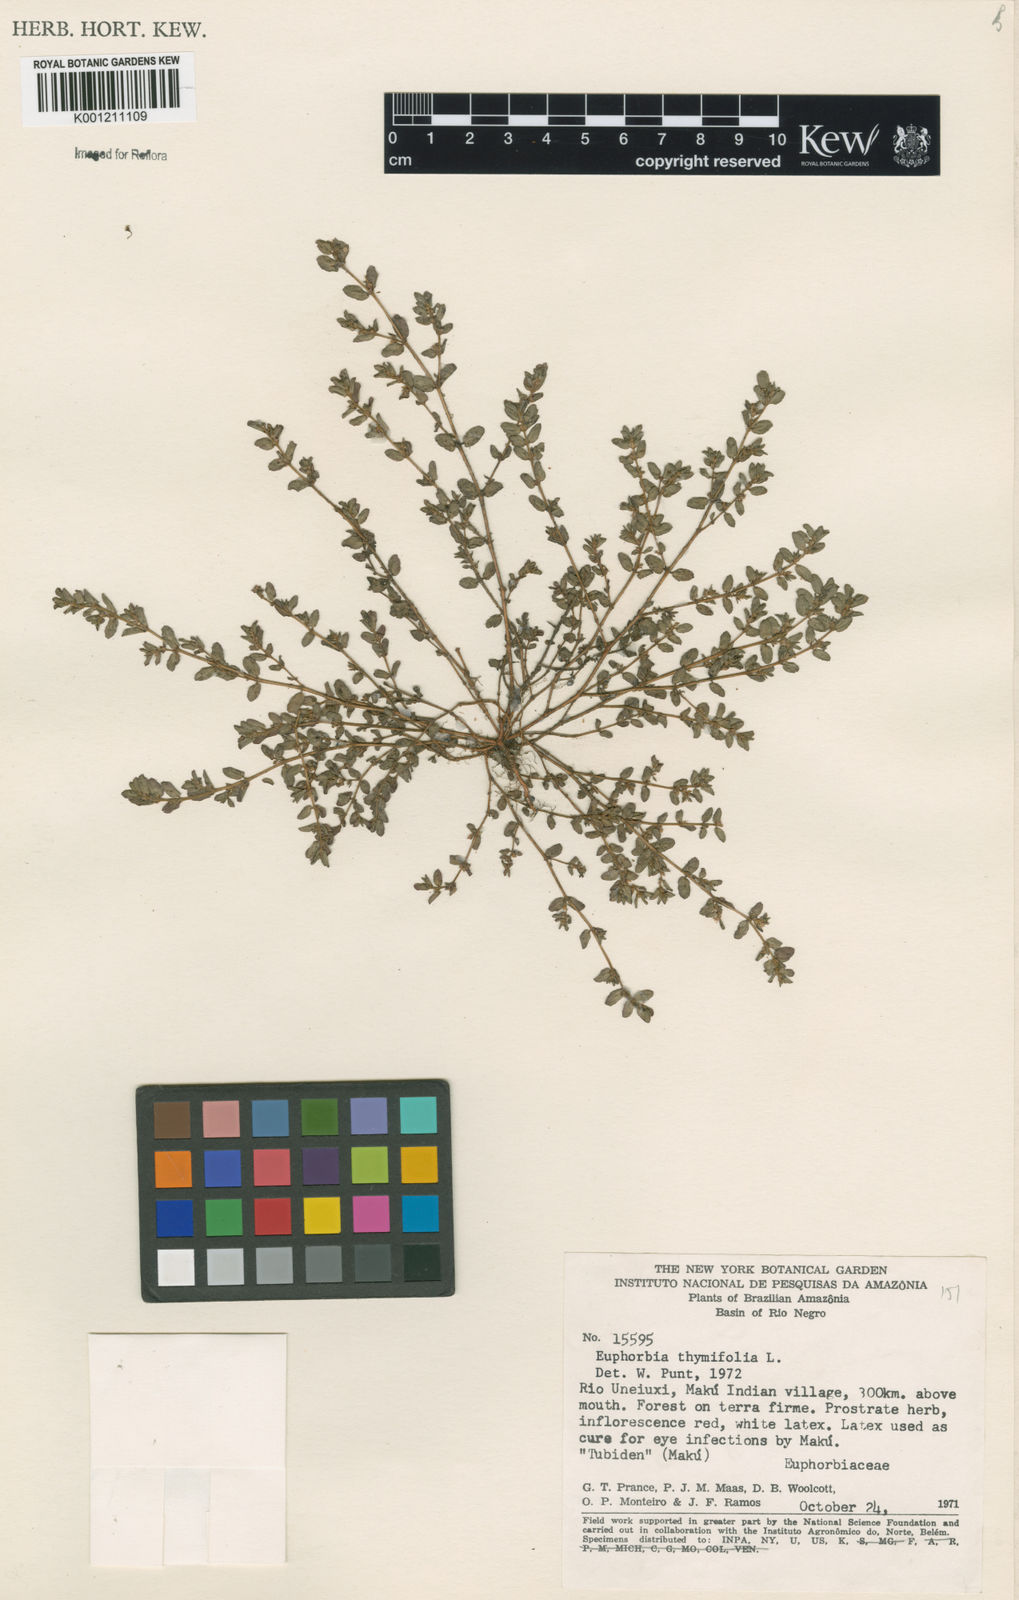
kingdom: Plantae
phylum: Tracheophyta
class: Magnoliopsida
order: Malpighiales
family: Euphorbiaceae
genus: Euphorbia
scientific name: Euphorbia thymifolia
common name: Gulf sandmat
